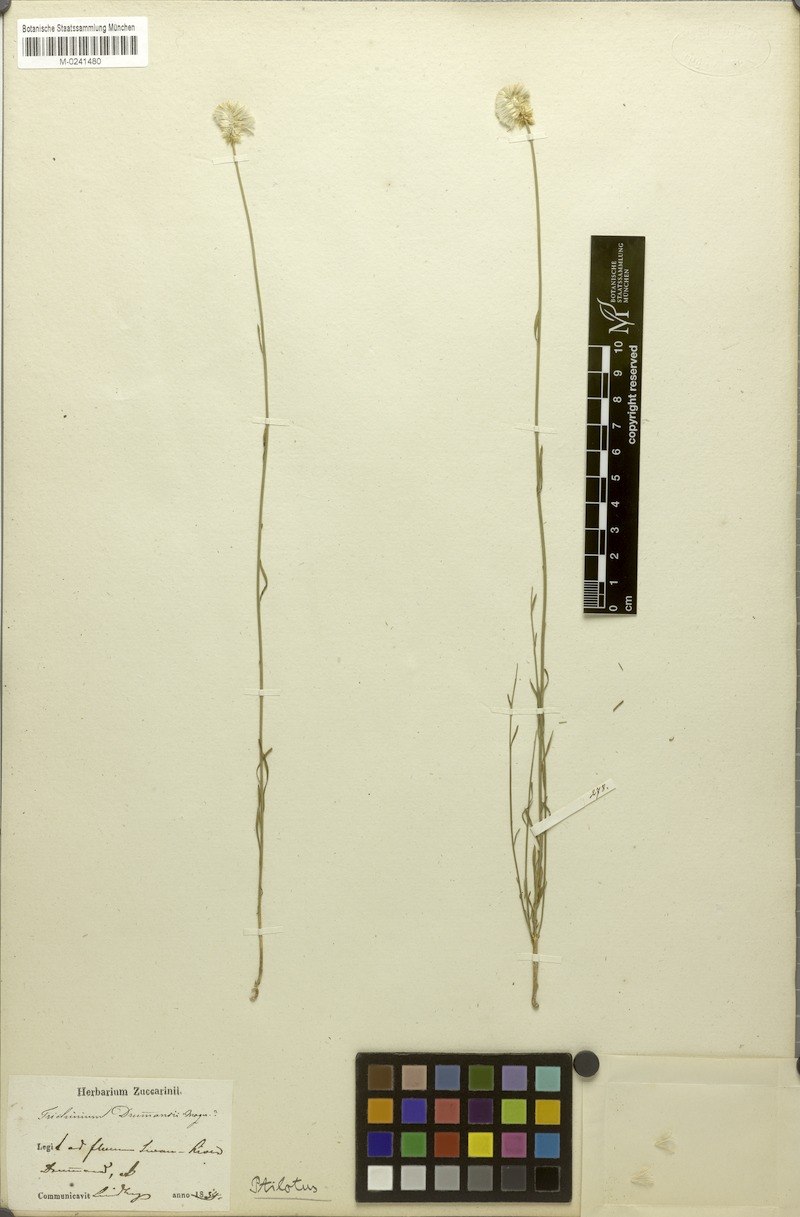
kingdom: Plantae
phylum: Tracheophyta
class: Magnoliopsida
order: Caryophyllales
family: Amaranthaceae
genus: Ptilotus
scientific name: Ptilotus drummondii
